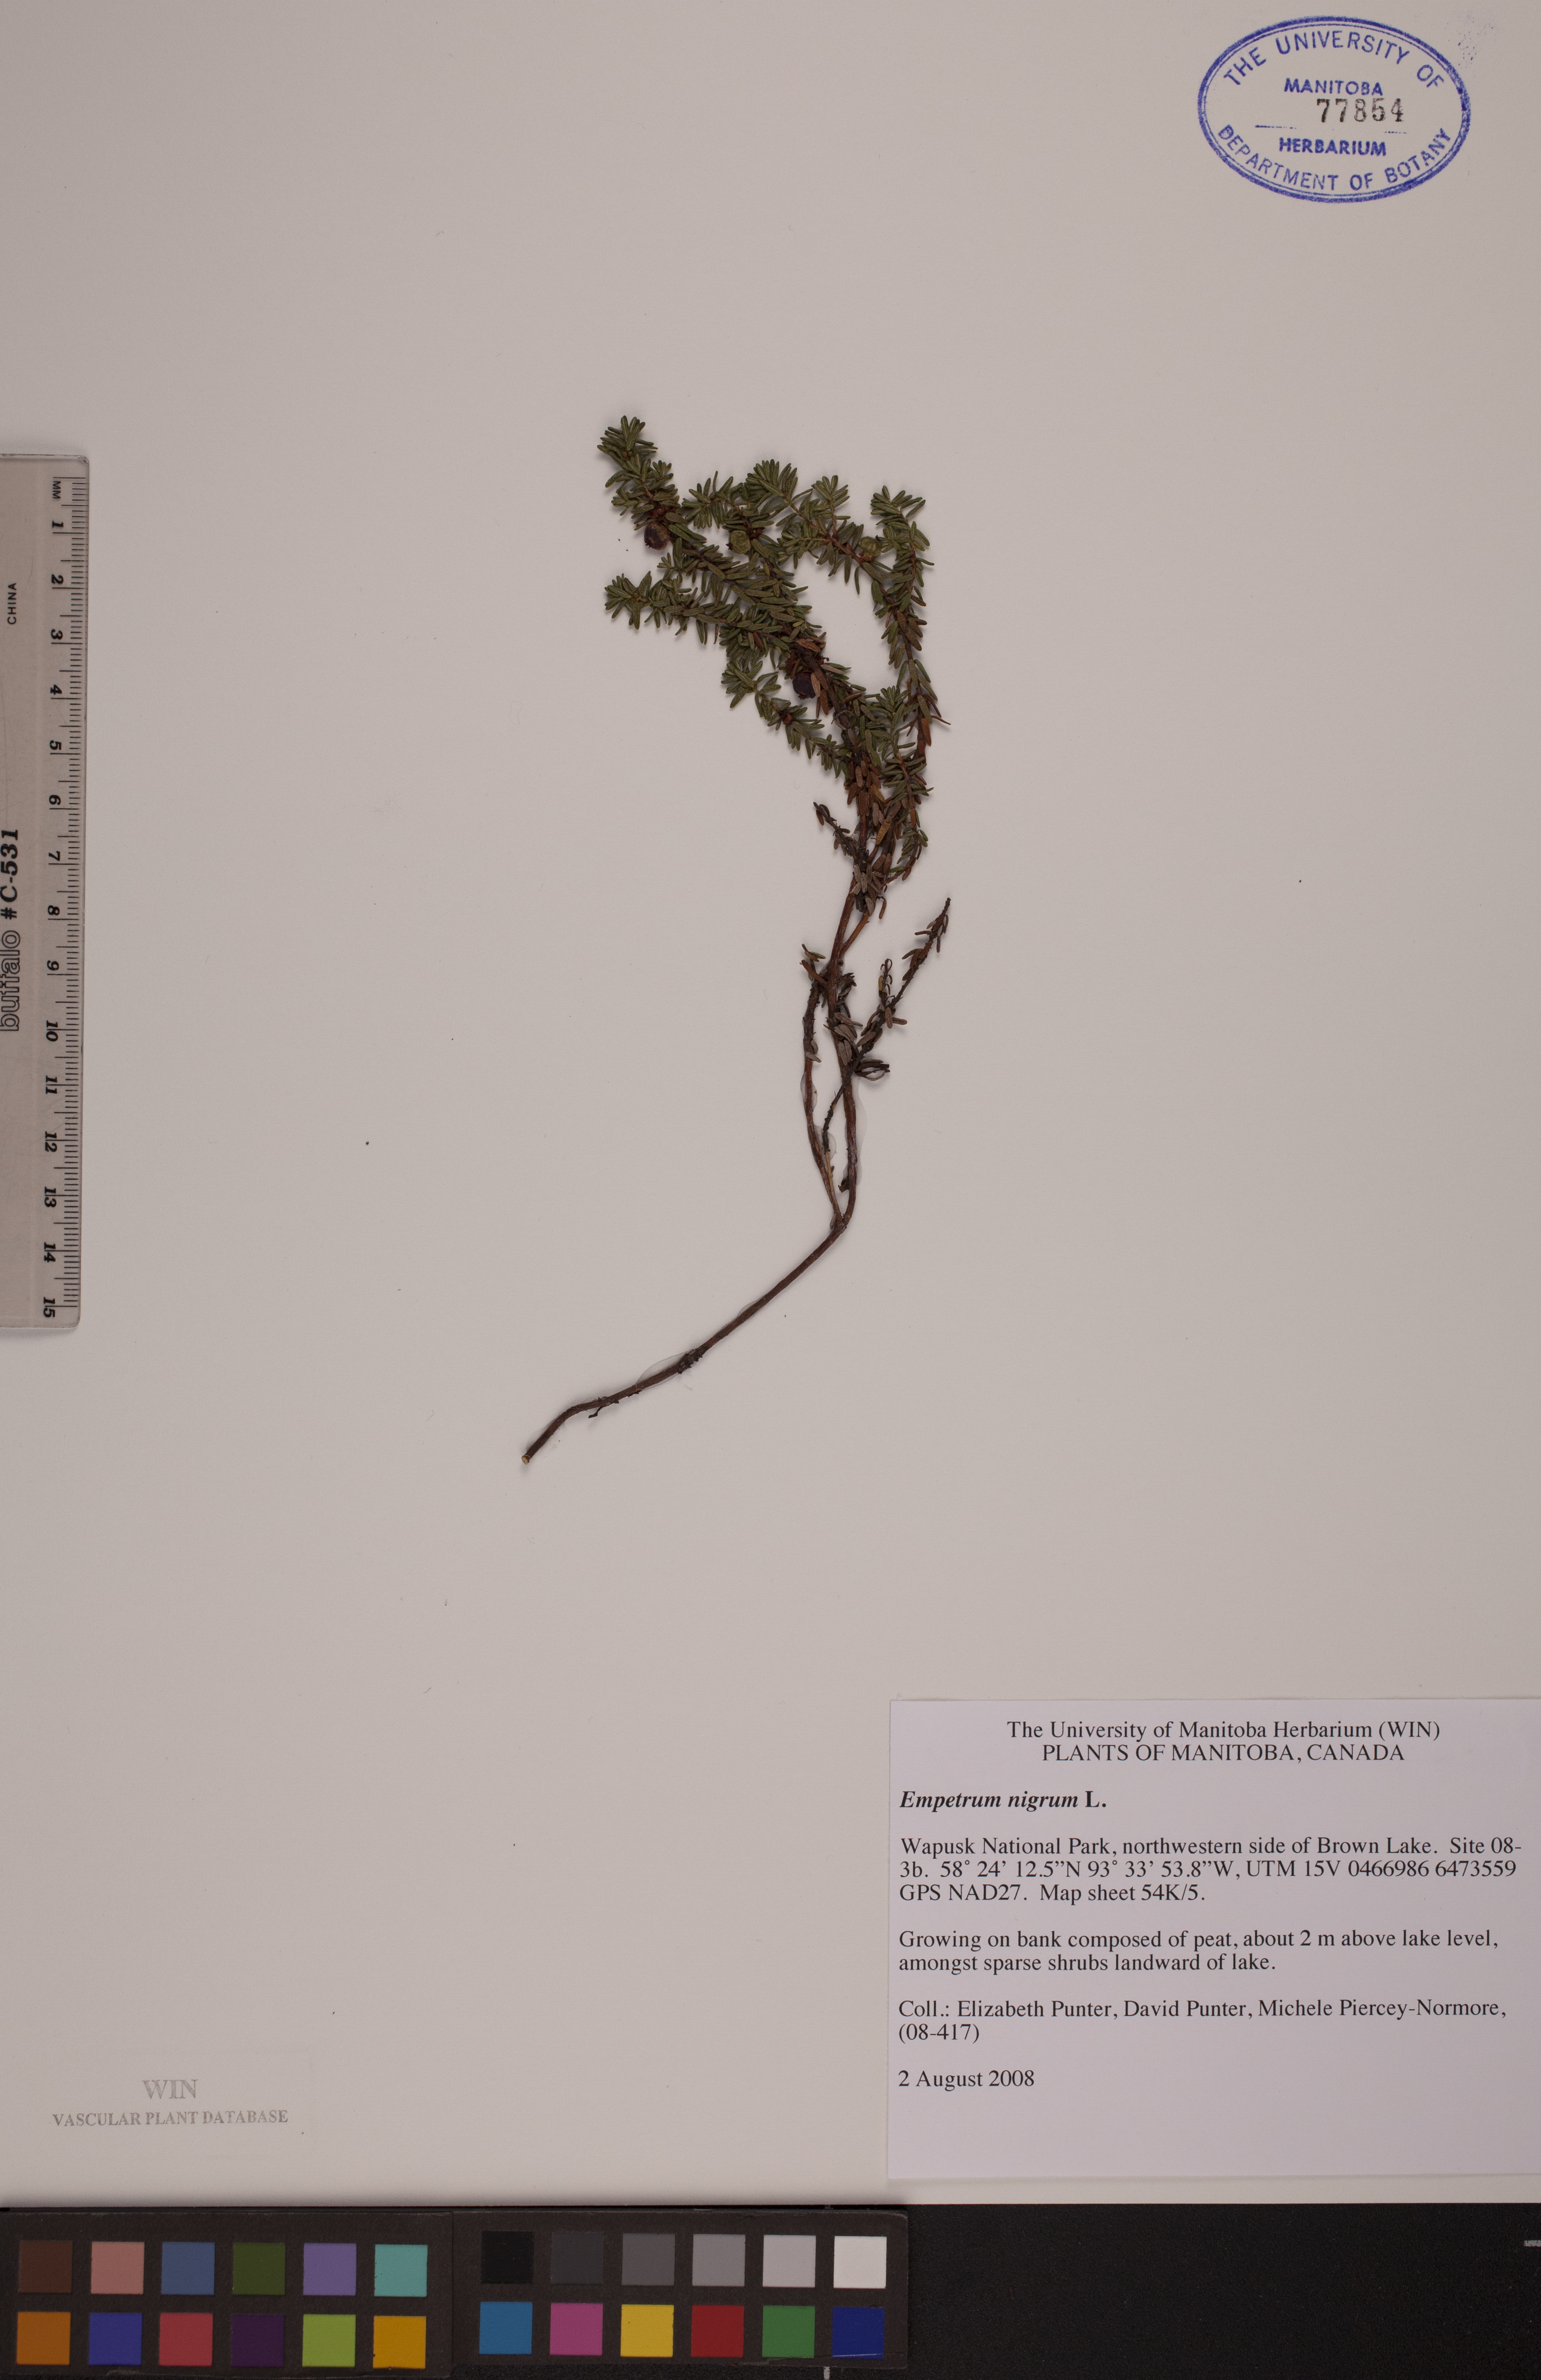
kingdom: Plantae
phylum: Tracheophyta
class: Magnoliopsida
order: Ericales
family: Ericaceae
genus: Empetrum
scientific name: Empetrum nigrum
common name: Black crowberry
